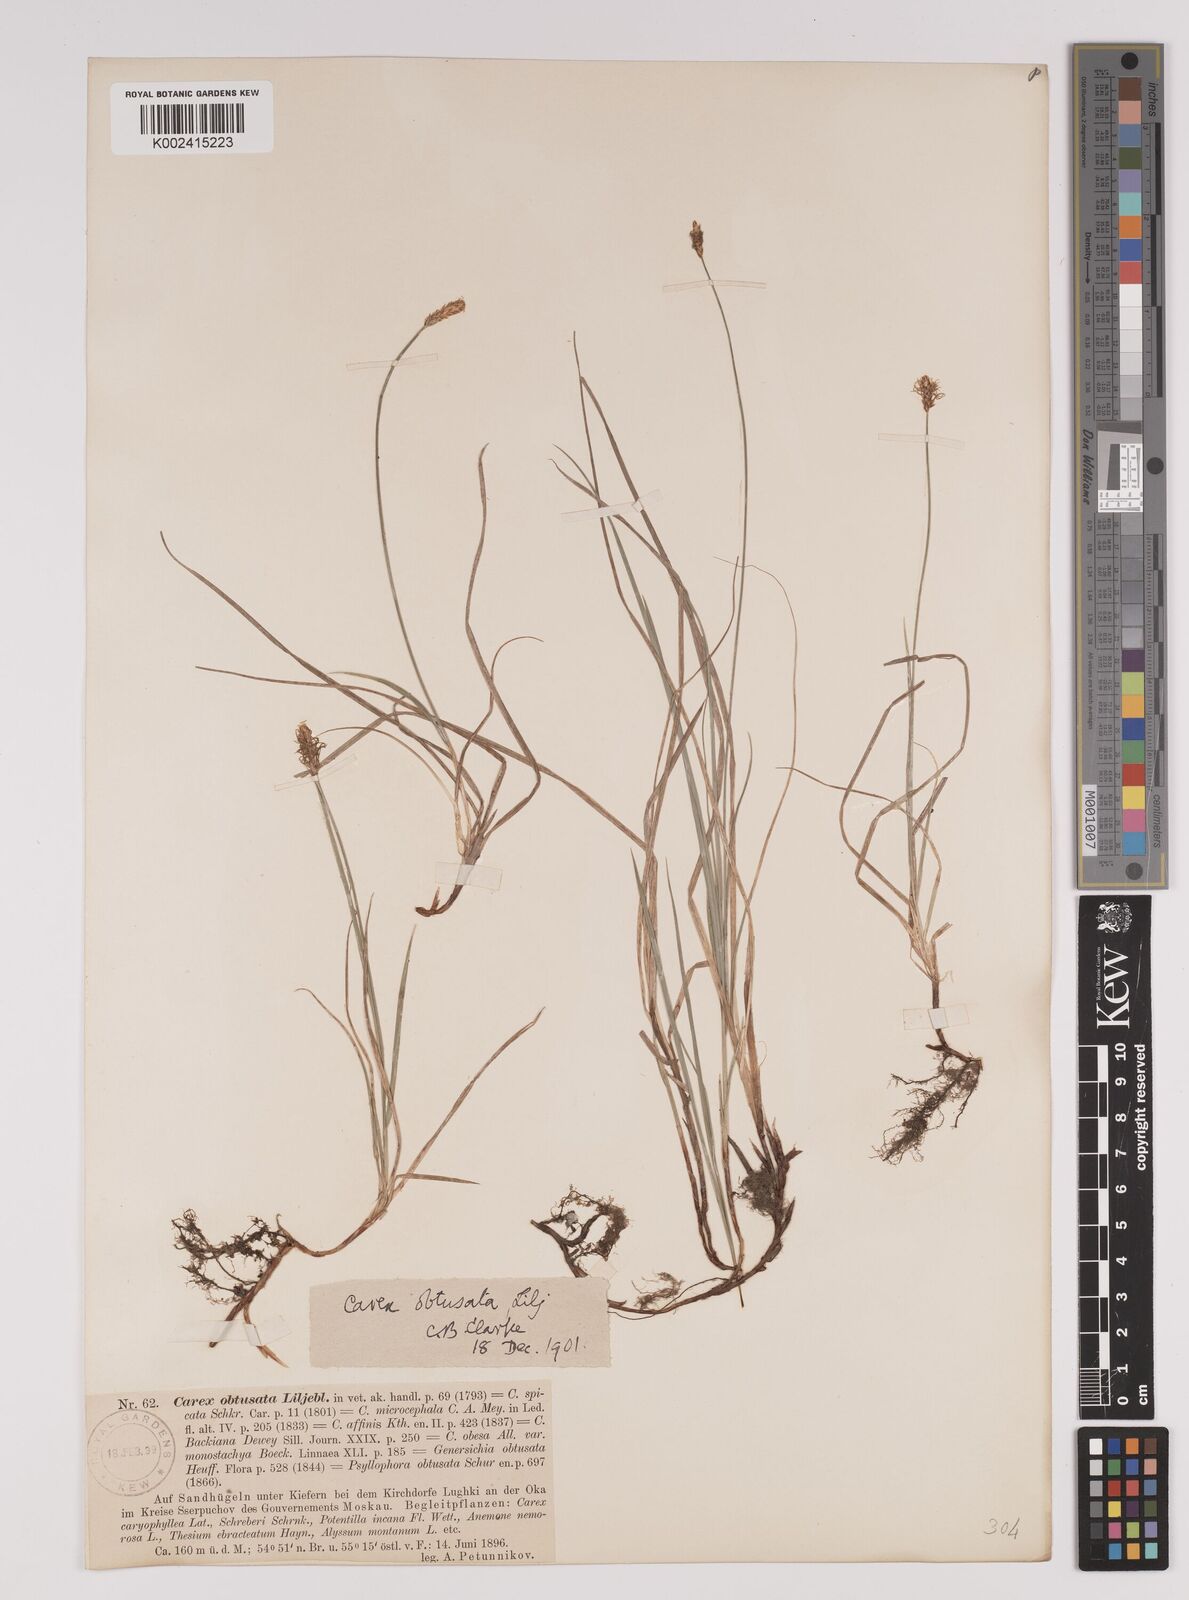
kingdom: Plantae
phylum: Tracheophyta
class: Liliopsida
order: Poales
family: Cyperaceae
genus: Carex
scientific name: Carex obtusata
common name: Blunt sedge
